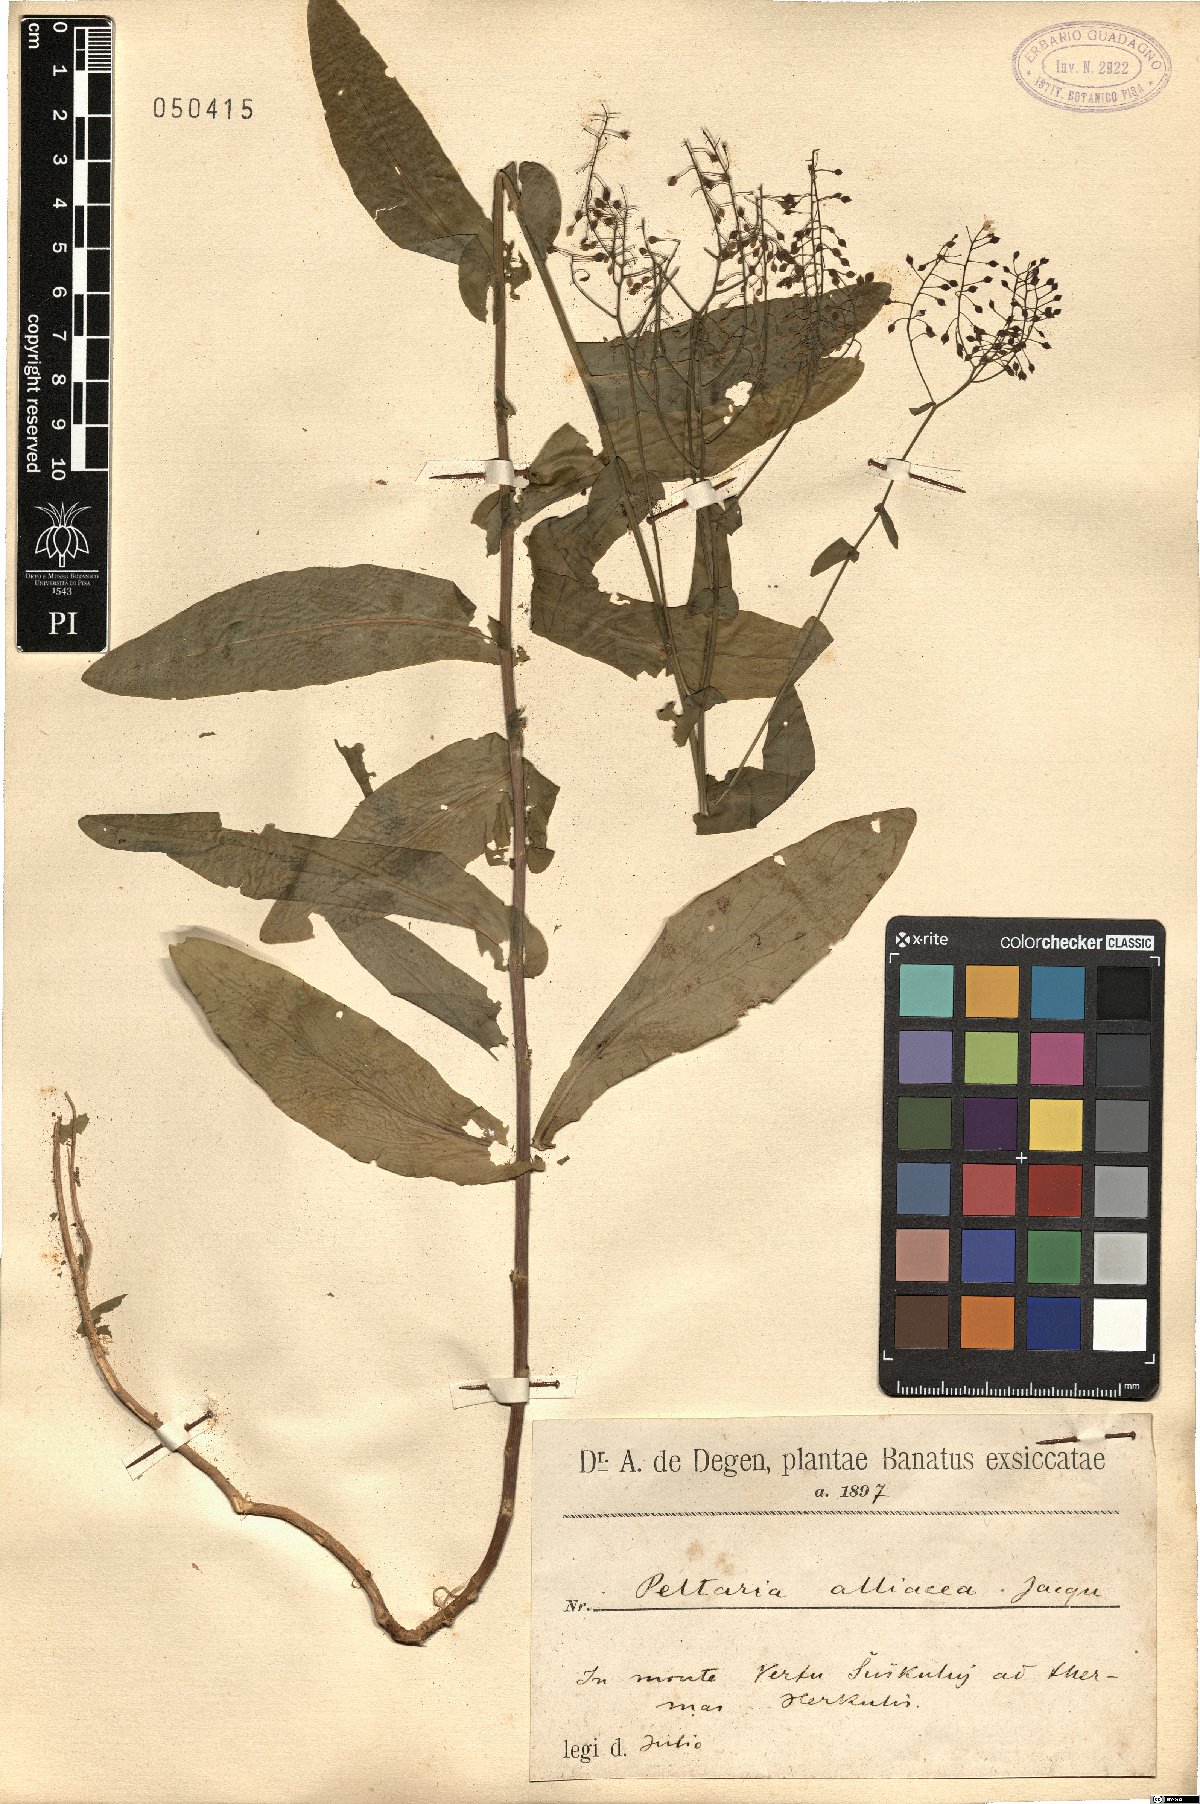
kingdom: Plantae
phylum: Tracheophyta
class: Magnoliopsida
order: Brassicales
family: Brassicaceae
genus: Peltaria
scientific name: Peltaria alliacea
